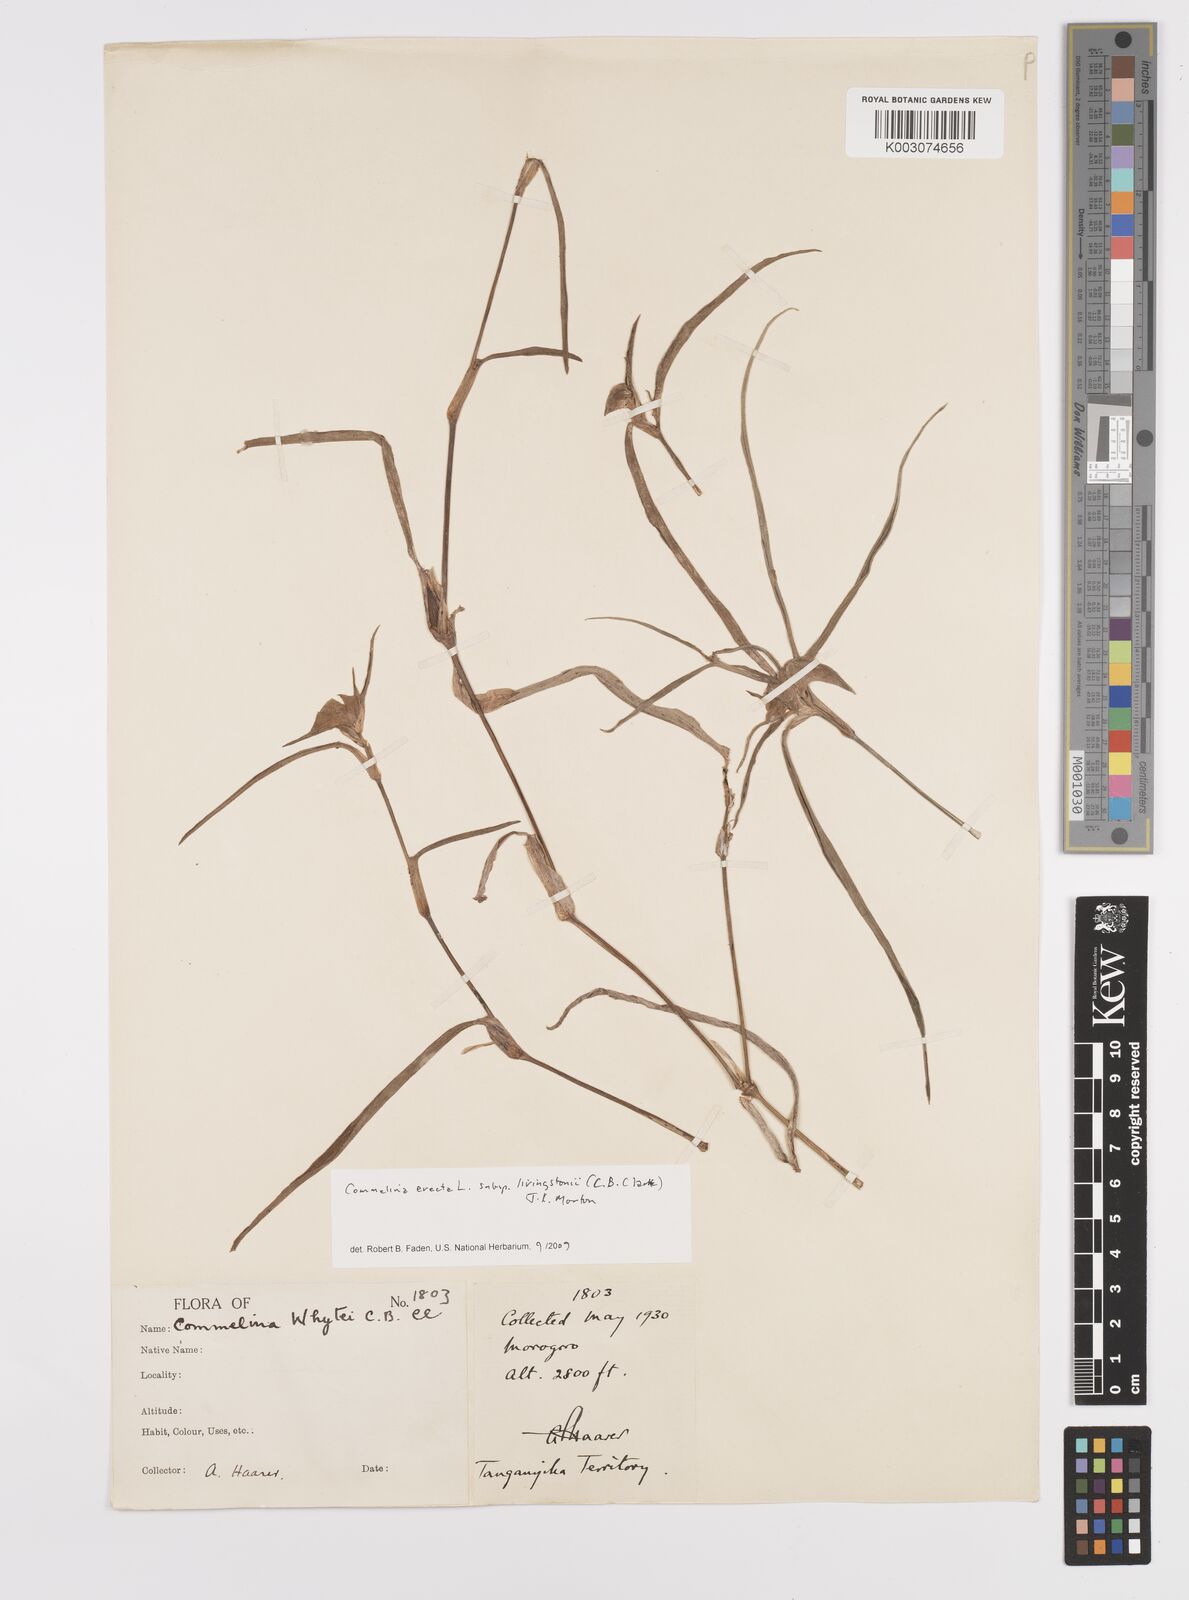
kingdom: Plantae
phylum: Tracheophyta
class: Liliopsida
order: Commelinales
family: Commelinaceae
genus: Commelina
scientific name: Commelina erecta
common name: Blousel blommetjie
